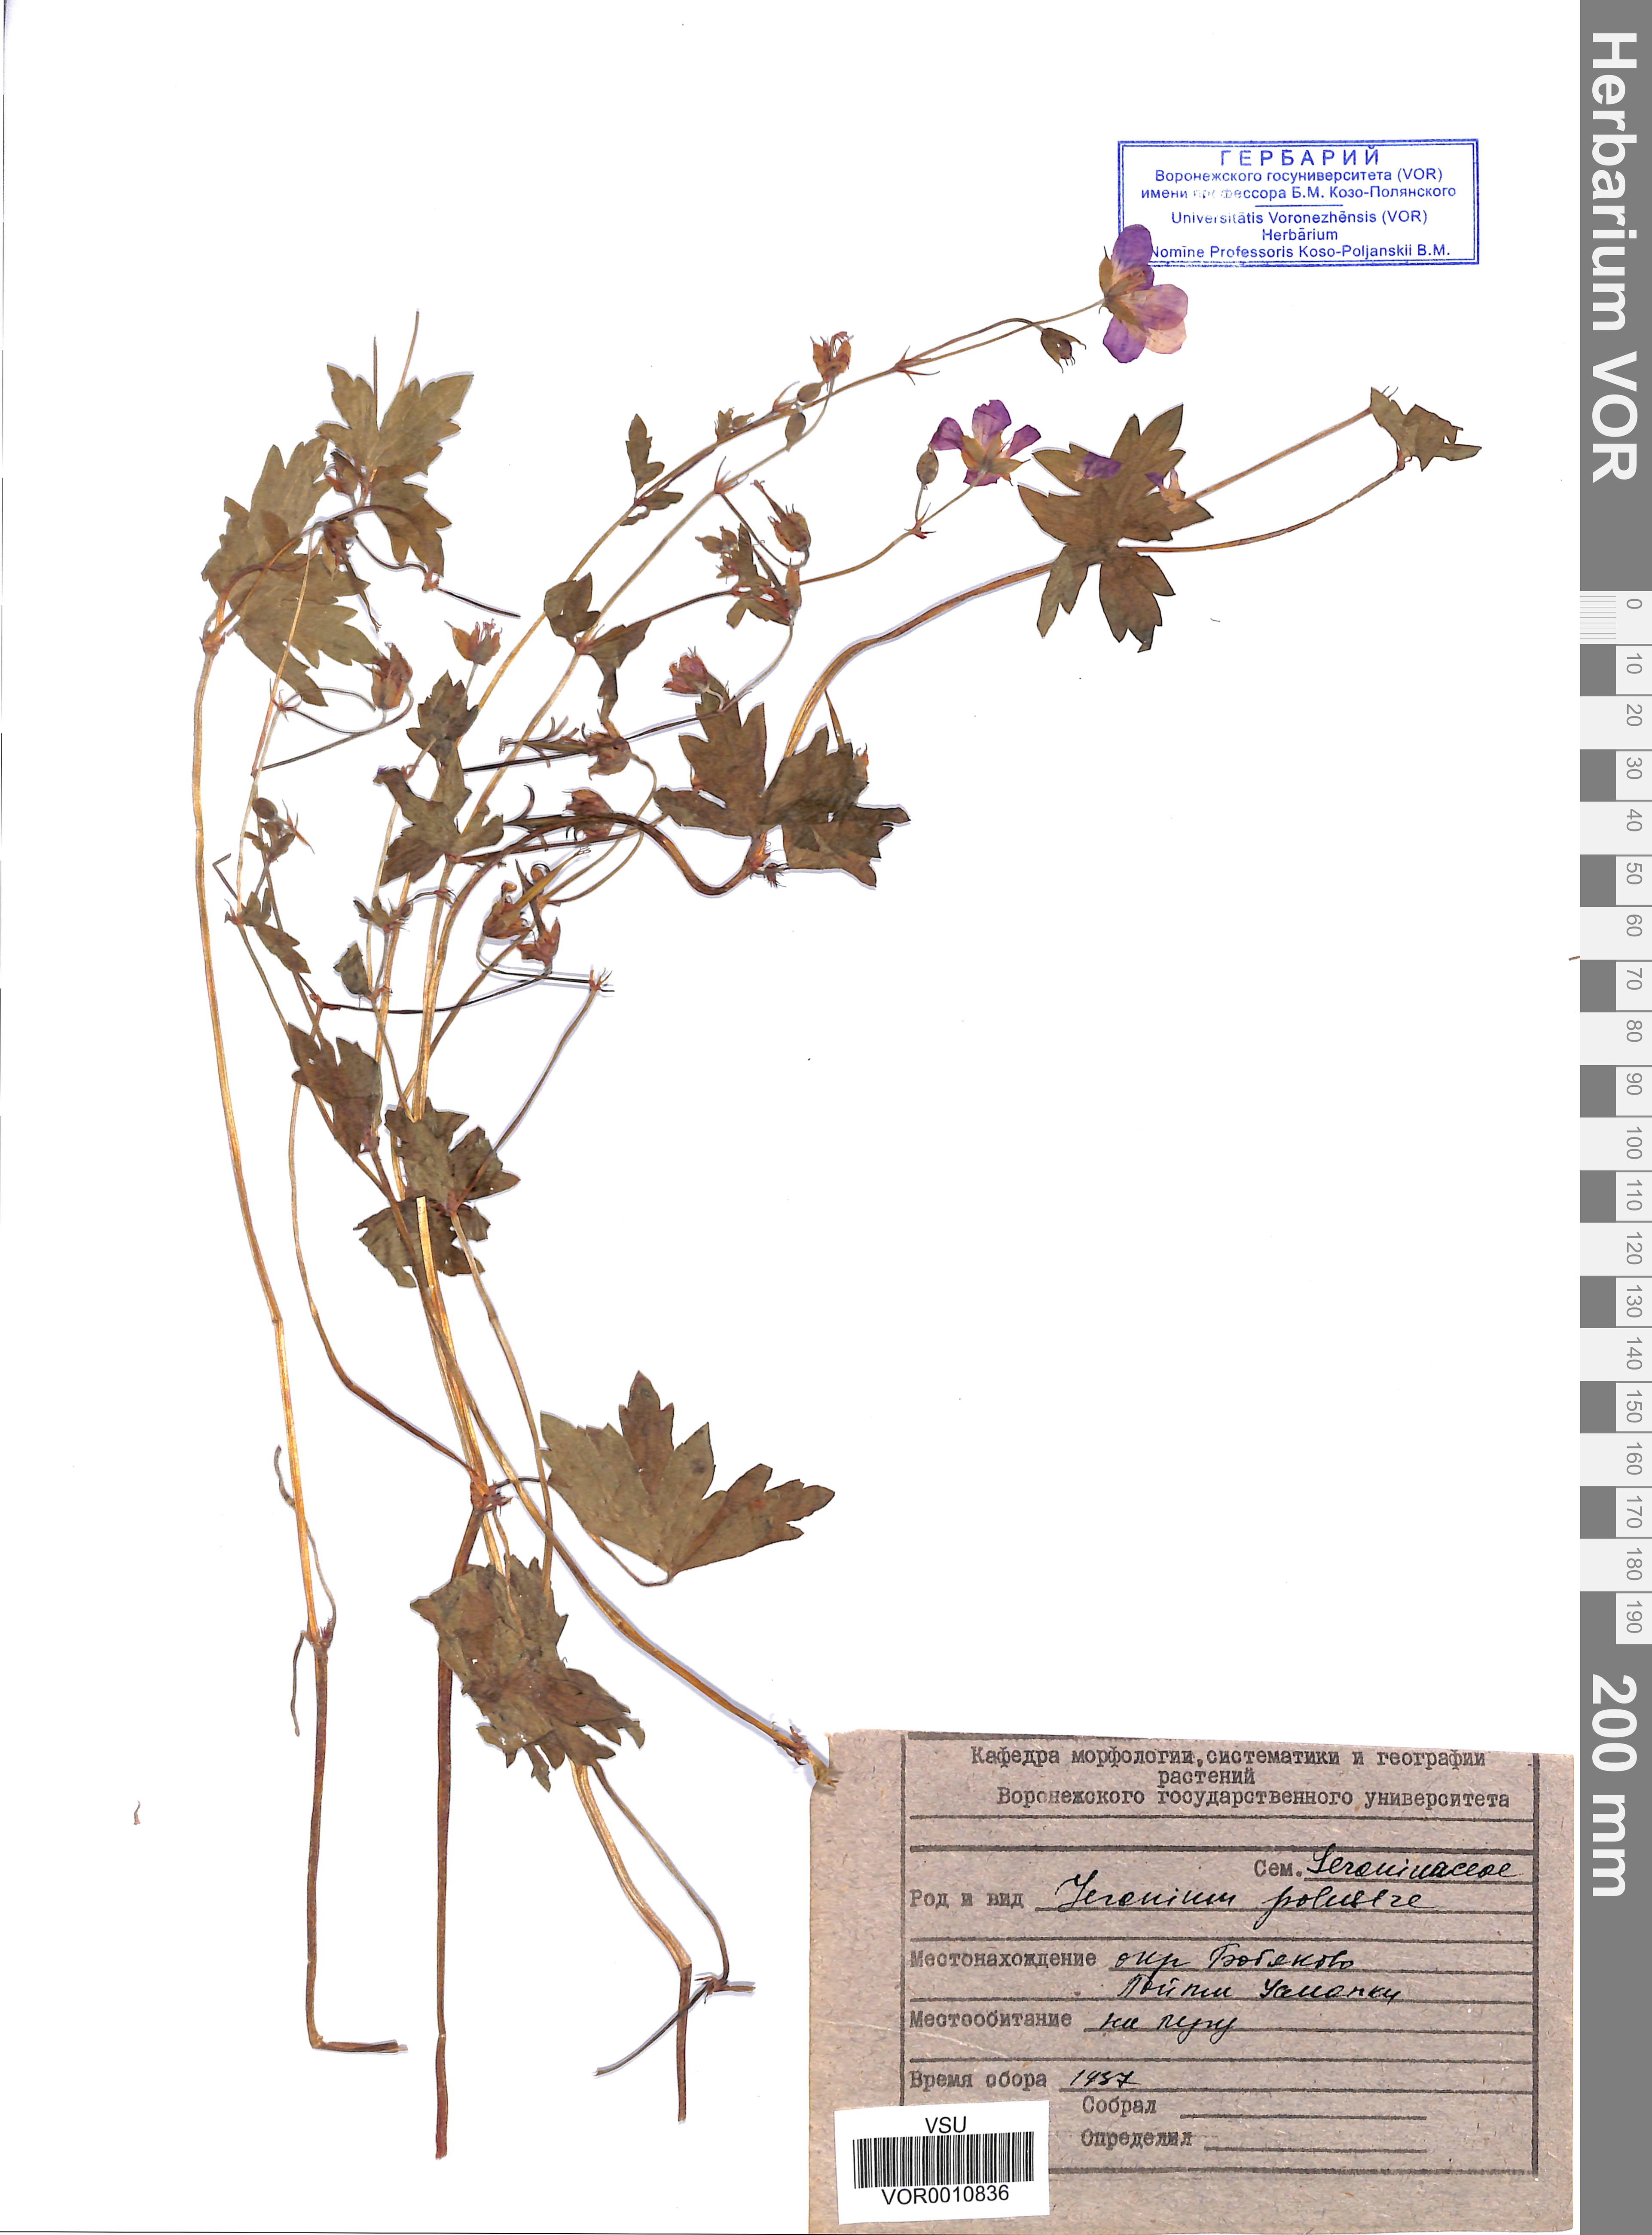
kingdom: Plantae
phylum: Tracheophyta
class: Magnoliopsida
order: Geraniales
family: Geraniaceae
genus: Geranium
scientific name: Geranium palustre
